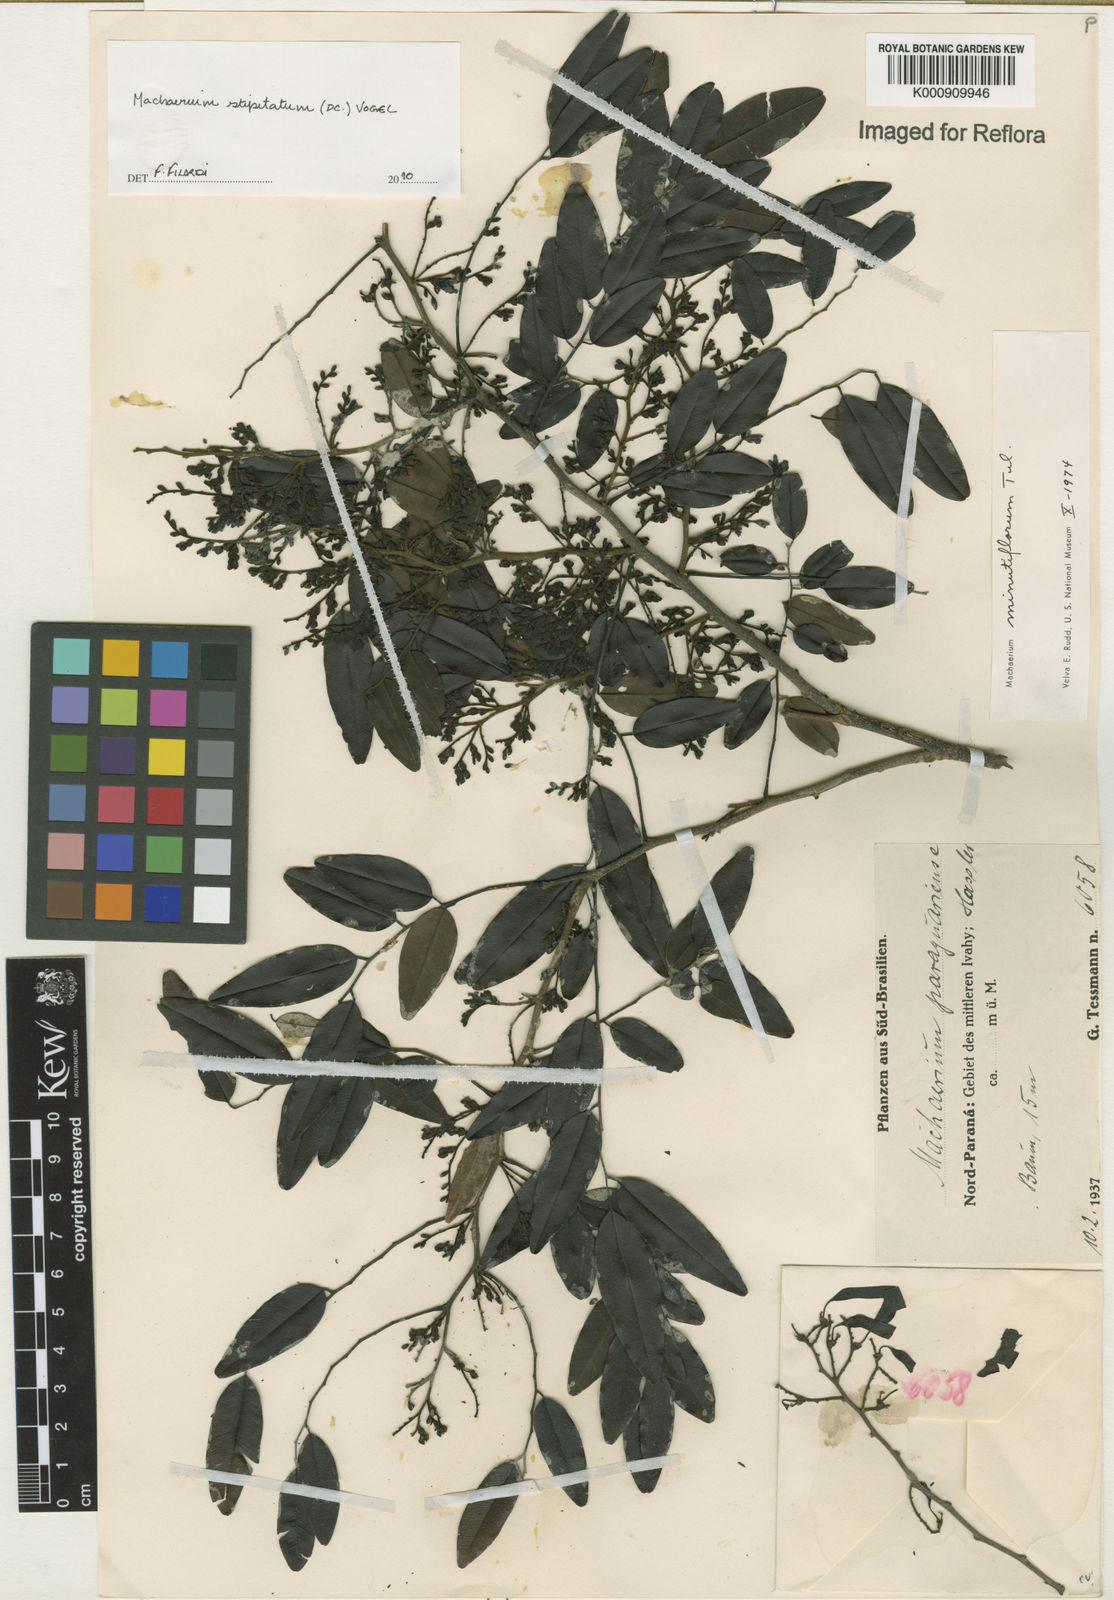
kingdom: Plantae
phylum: Tracheophyta
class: Magnoliopsida
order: Fabales
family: Fabaceae
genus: Machaerium
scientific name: Machaerium stipitatum
